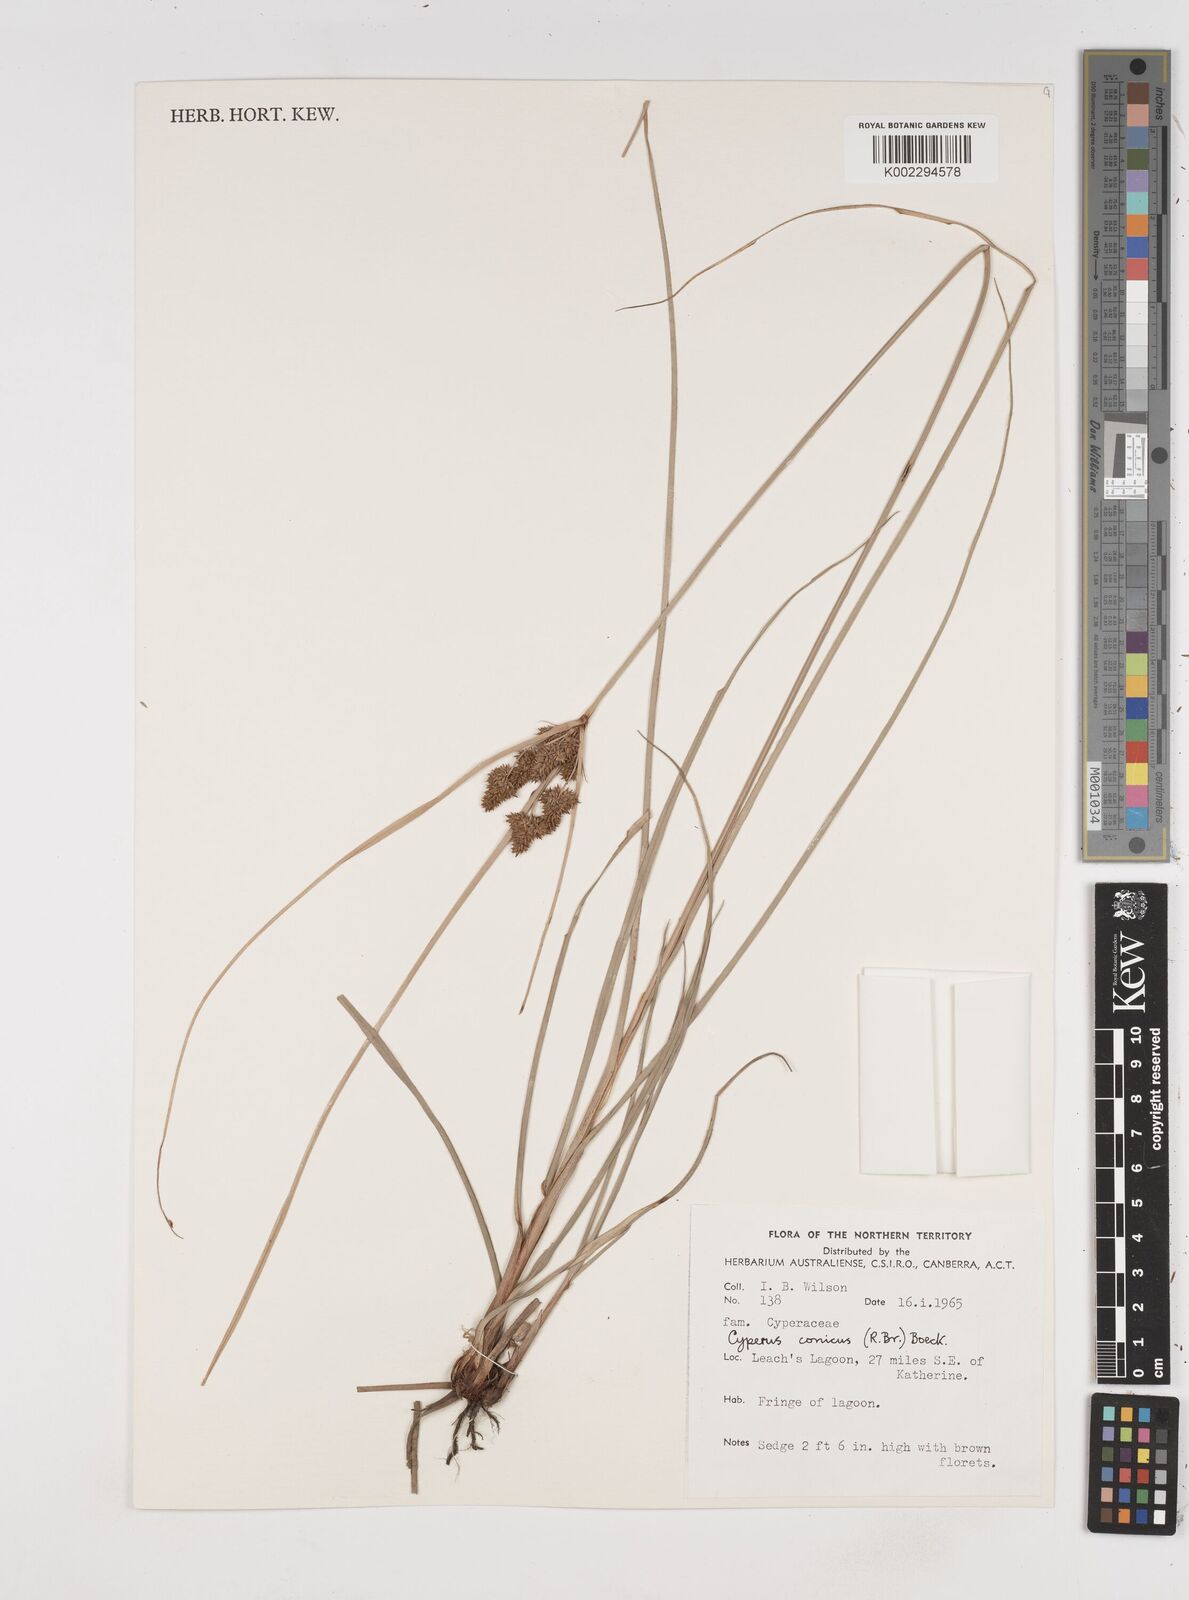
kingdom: Plantae
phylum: Tracheophyta
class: Liliopsida
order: Poales
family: Cyperaceae
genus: Cyperus
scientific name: Cyperus conicus
